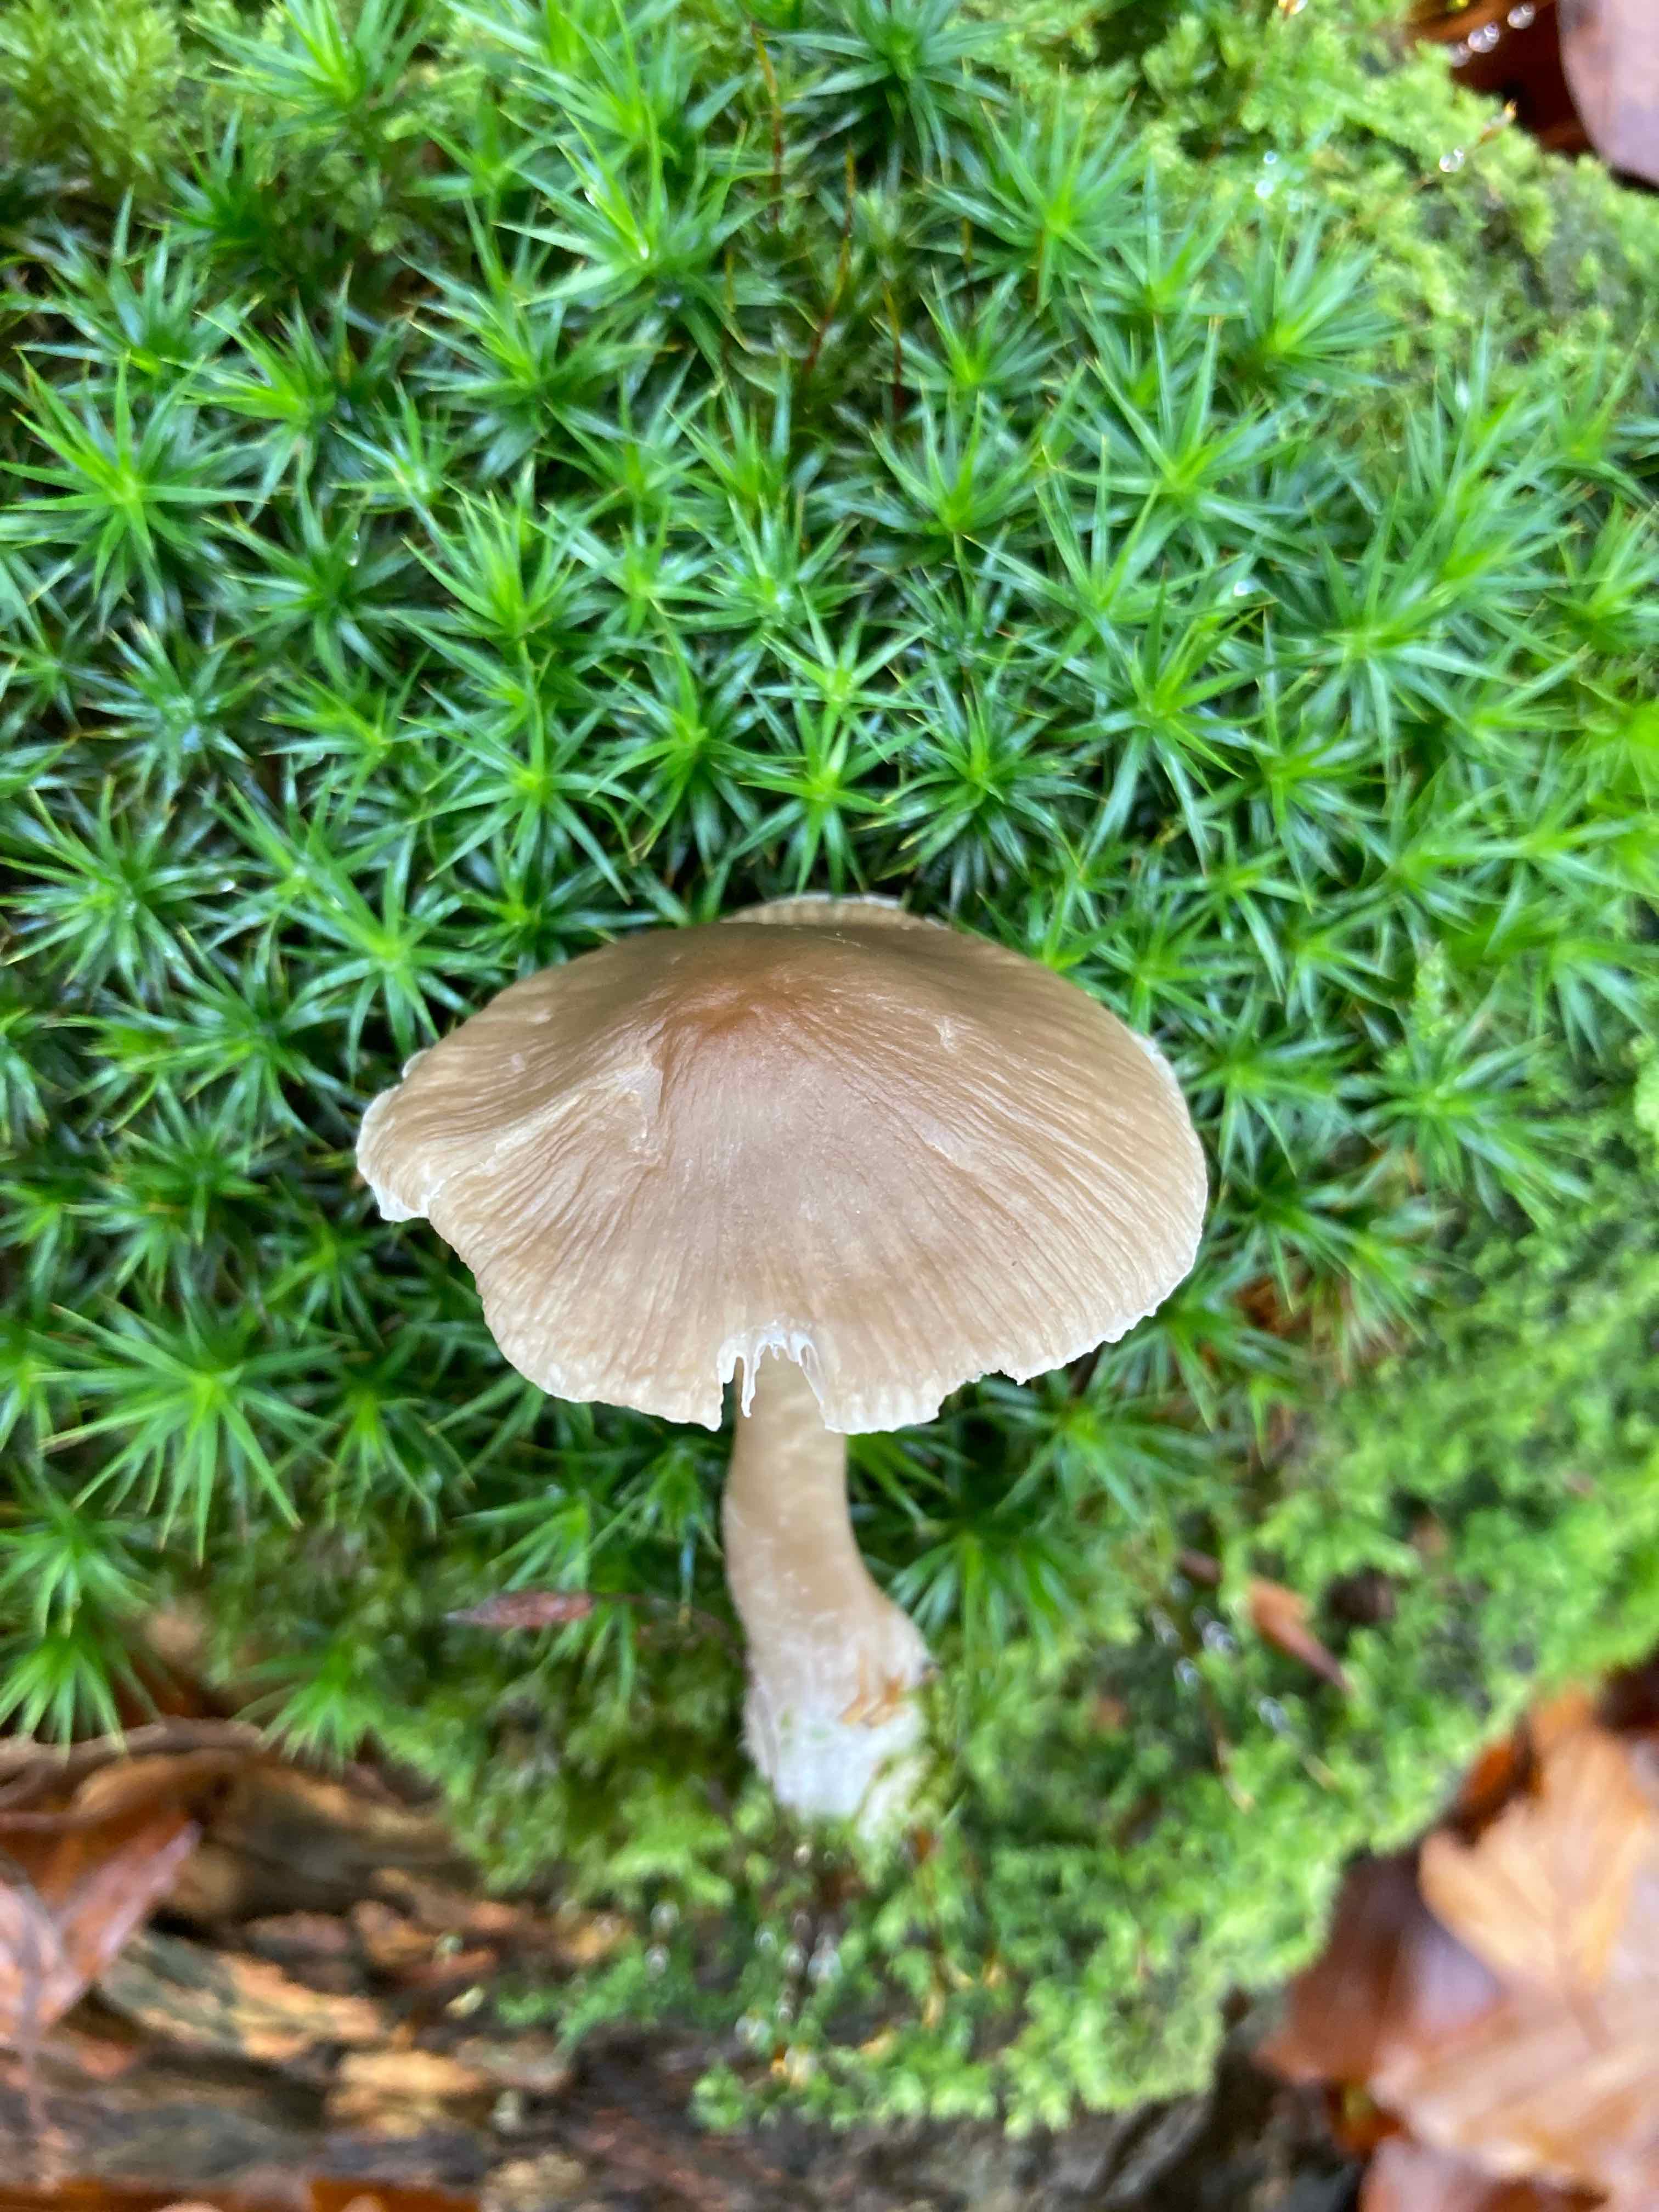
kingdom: Fungi
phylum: Basidiomycota
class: Agaricomycetes
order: Agaricales
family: Mycenaceae
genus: Mycena
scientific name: Mycena galericulata
